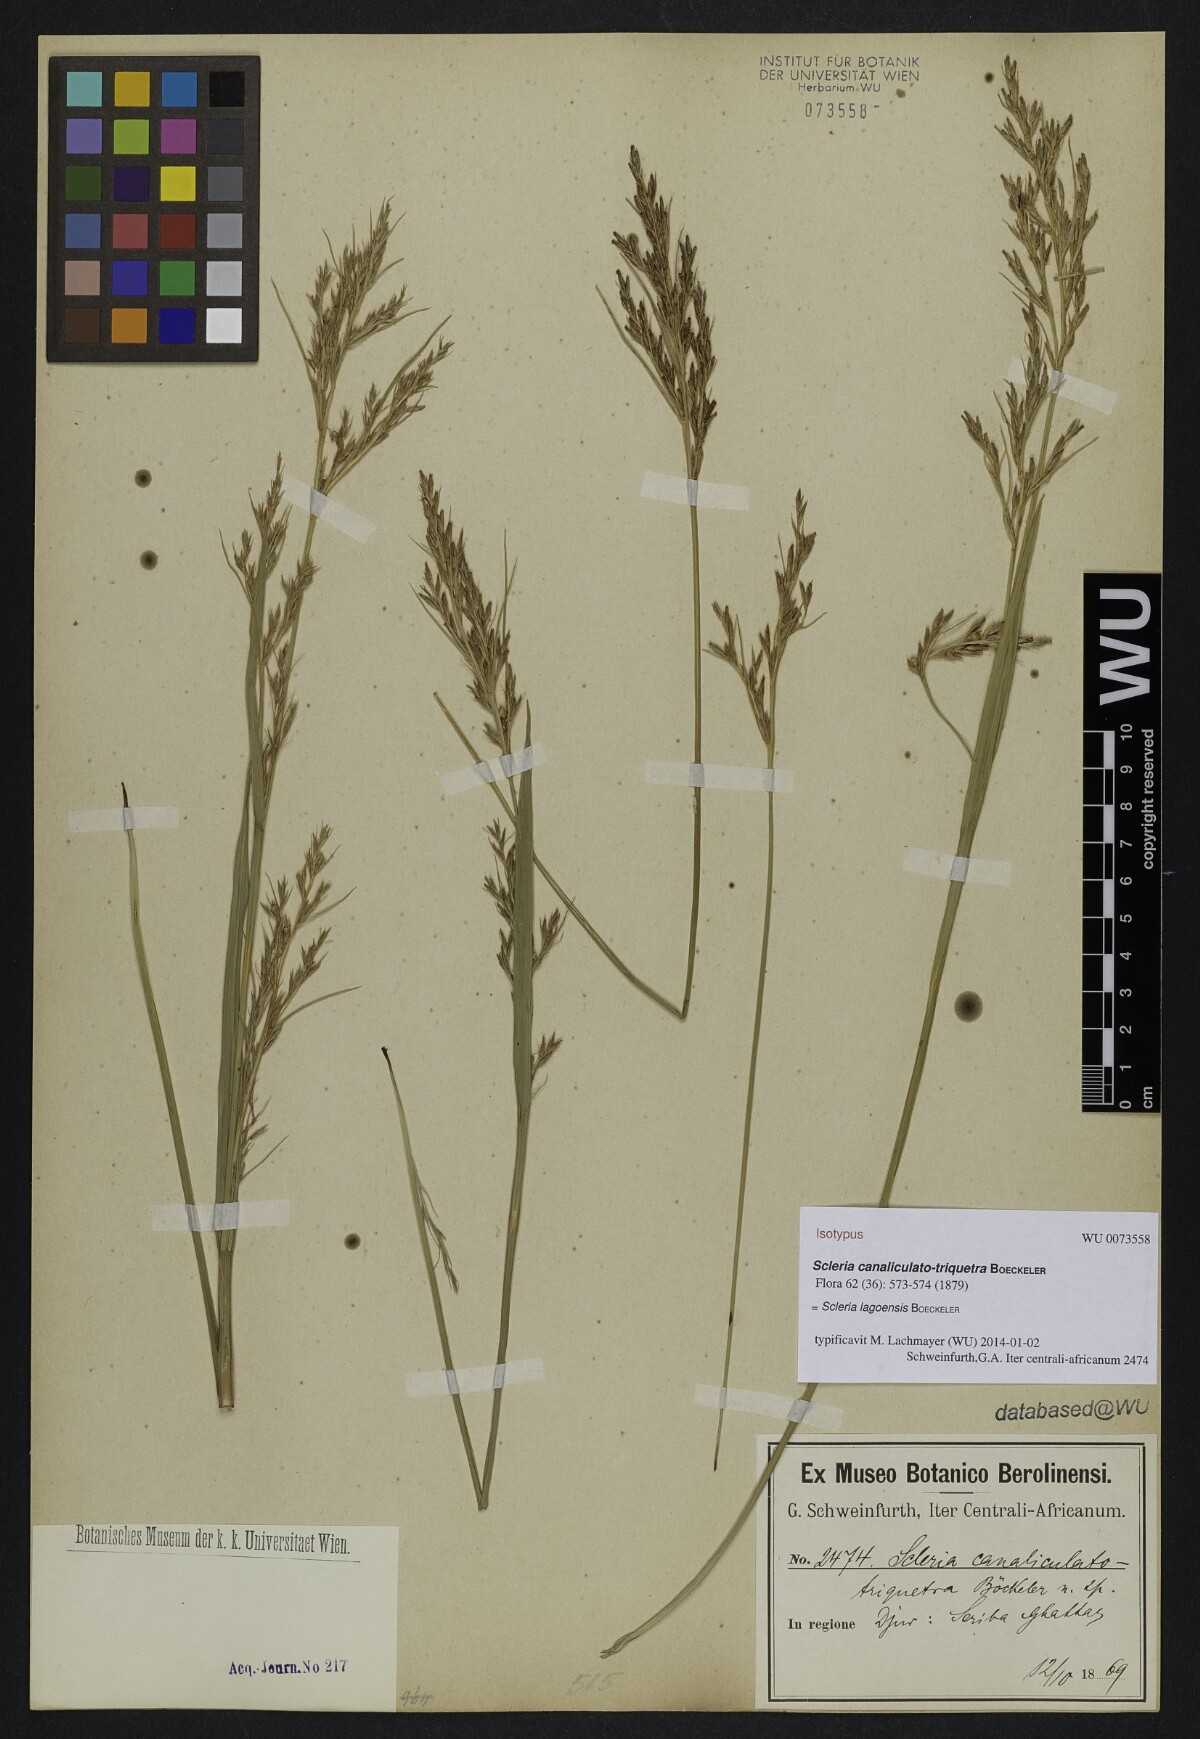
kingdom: Plantae
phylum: Tracheophyta
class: Liliopsida
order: Poales
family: Cyperaceae
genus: Scleria
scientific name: Scleria lagoensis
